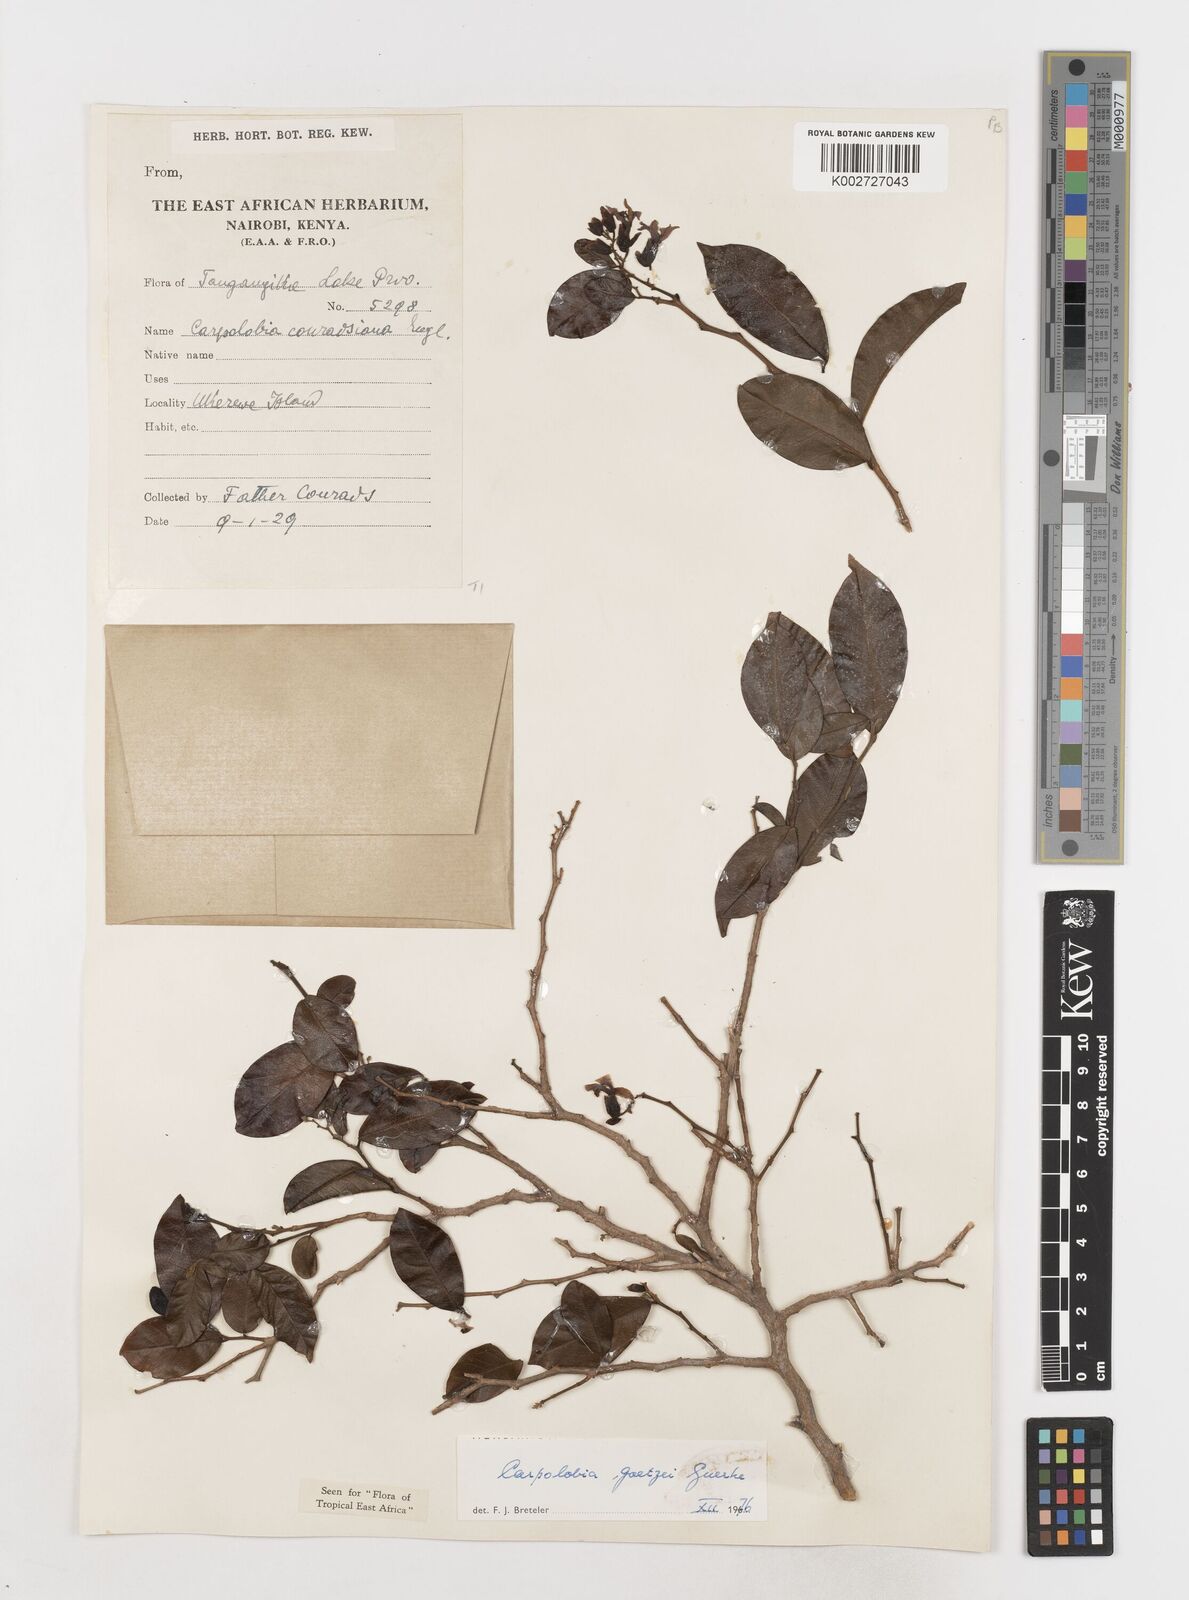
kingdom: Plantae
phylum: Tracheophyta
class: Magnoliopsida
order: Fabales
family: Polygalaceae
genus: Carpolobia
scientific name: Carpolobia goetzei
